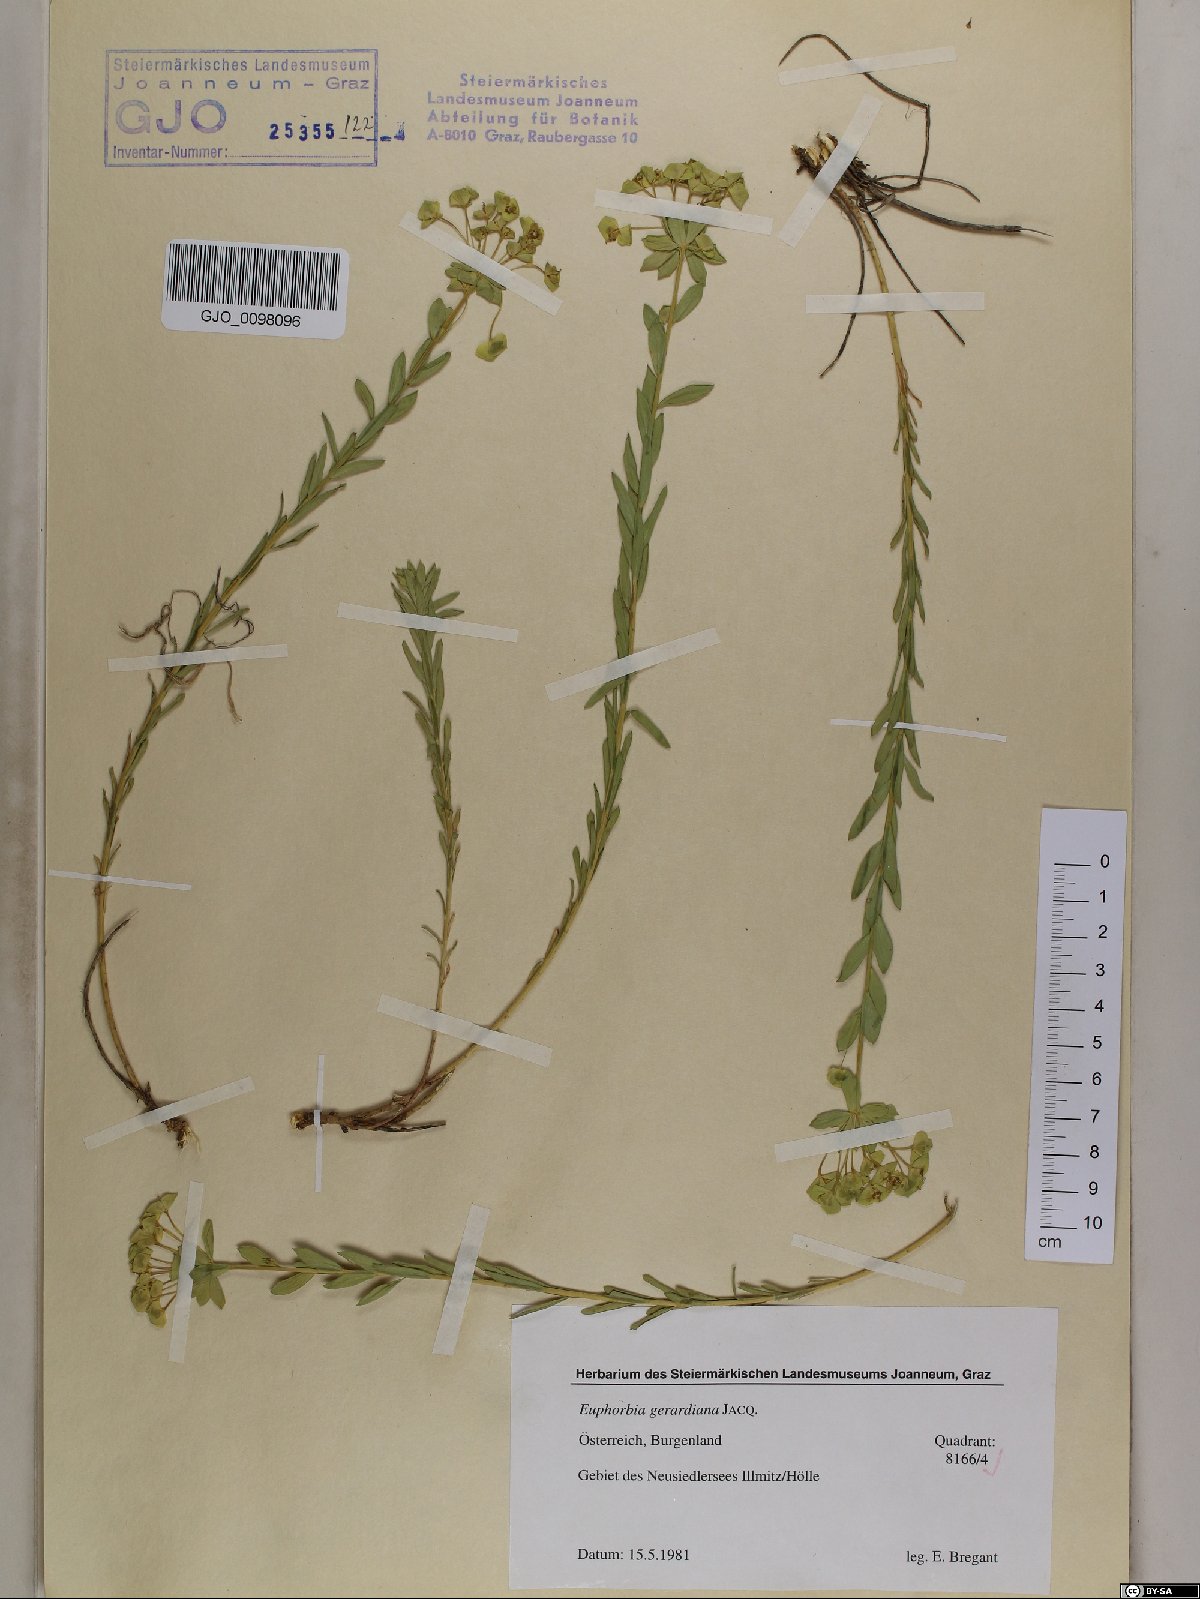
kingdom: Plantae
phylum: Tracheophyta
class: Magnoliopsida
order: Malpighiales
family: Euphorbiaceae
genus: Euphorbia
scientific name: Euphorbia seguieriana
